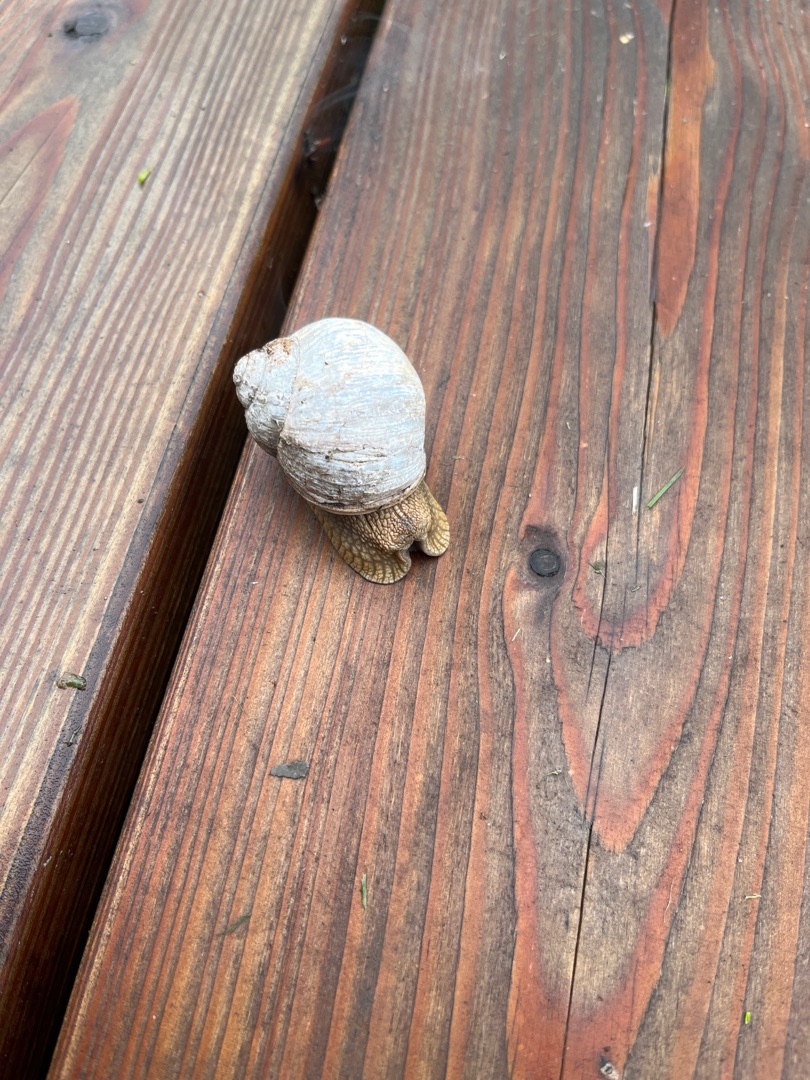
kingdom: Animalia
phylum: Mollusca
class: Gastropoda
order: Stylommatophora
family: Helicidae
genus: Helix
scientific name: Helix pomatia
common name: Vinbjergsnegl
